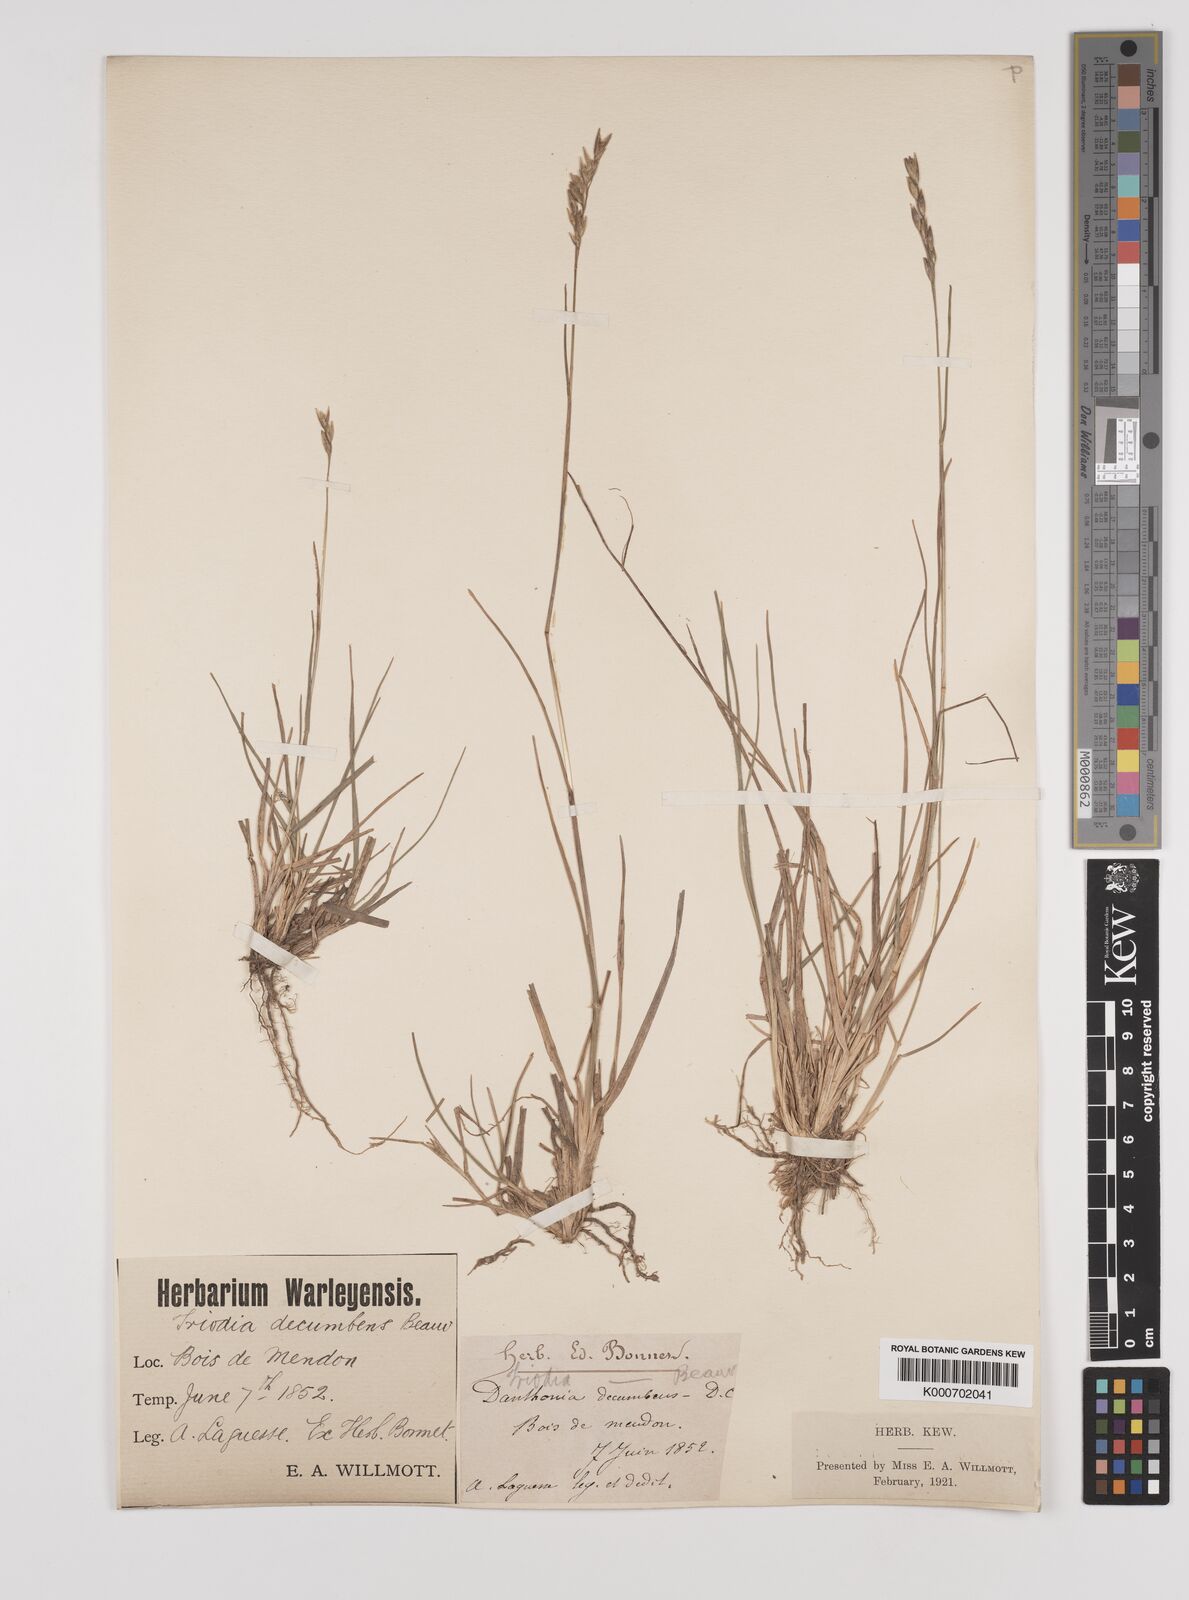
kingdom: Plantae
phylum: Tracheophyta
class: Liliopsida
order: Poales
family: Poaceae
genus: Danthonia
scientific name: Danthonia decumbens
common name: Common heathgrass
